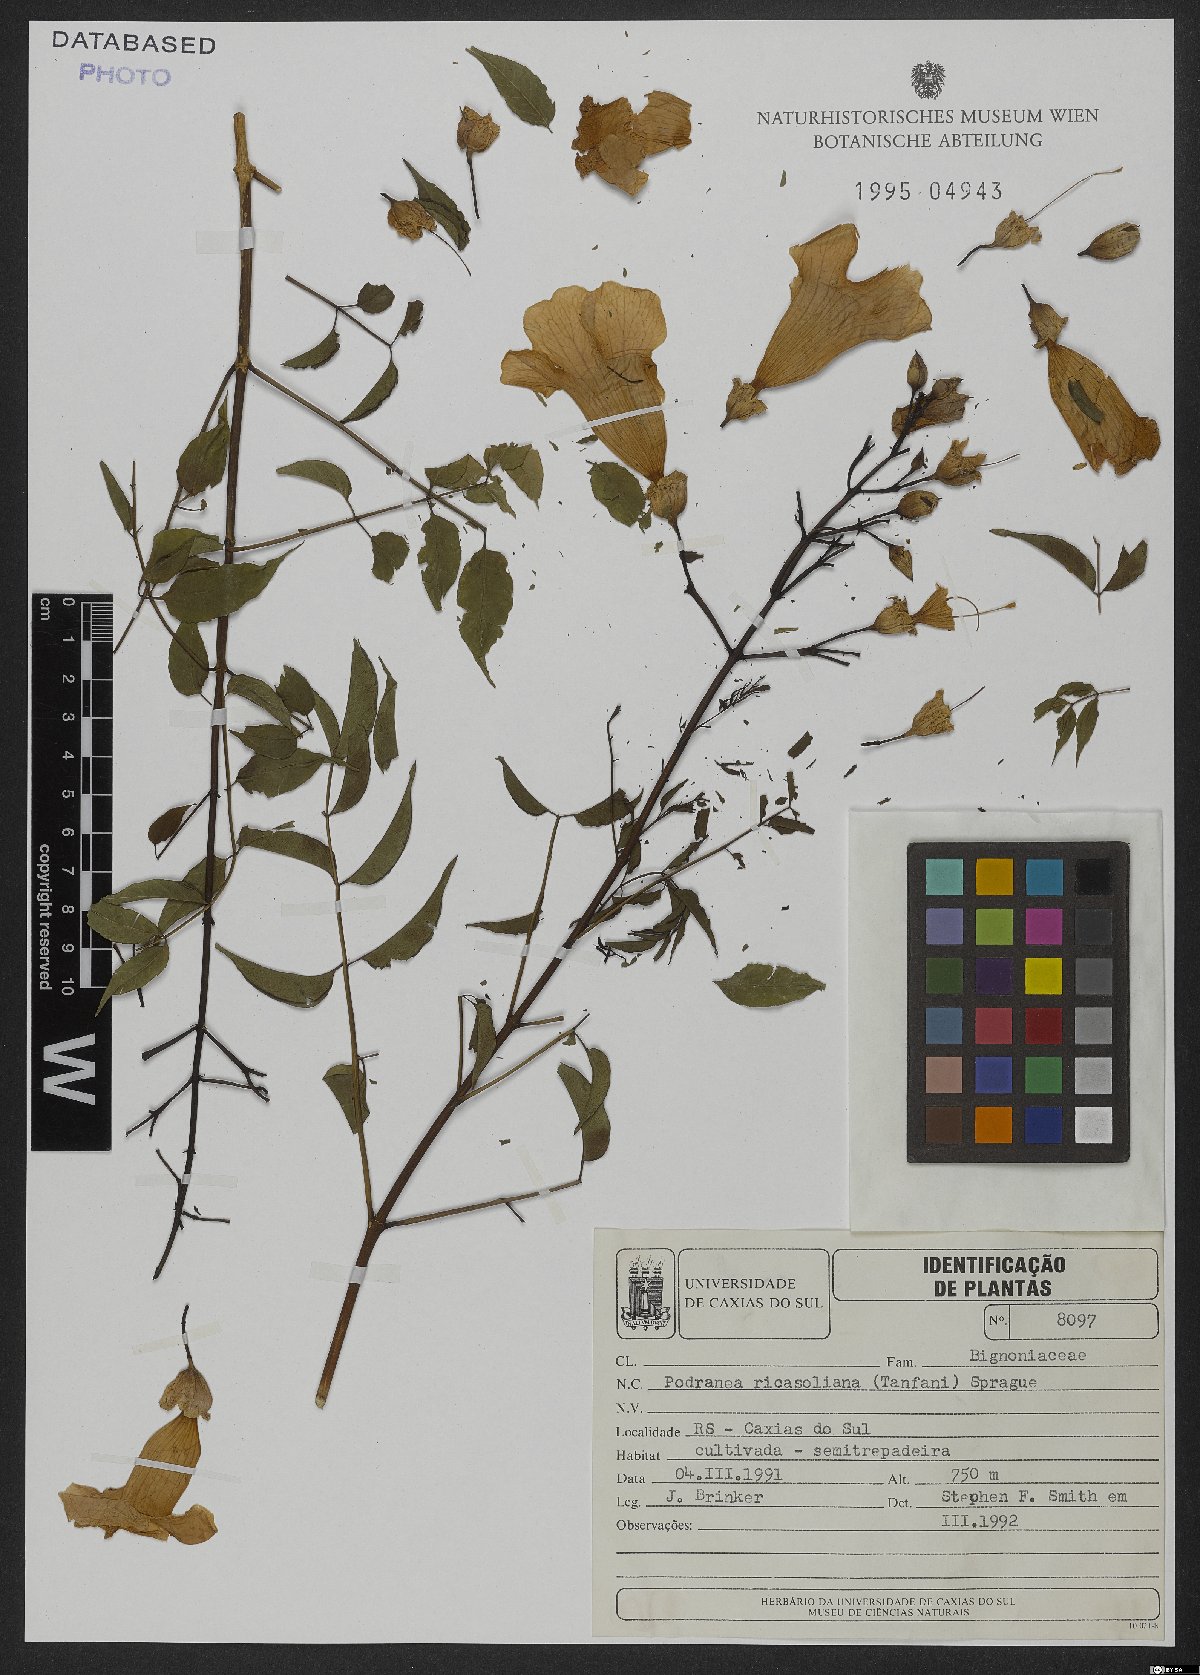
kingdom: Plantae
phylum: Tracheophyta
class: Magnoliopsida
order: Lamiales
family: Bignoniaceae
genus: Podranea
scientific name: Podranea ricasoliana
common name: Zimbabwe creeper
